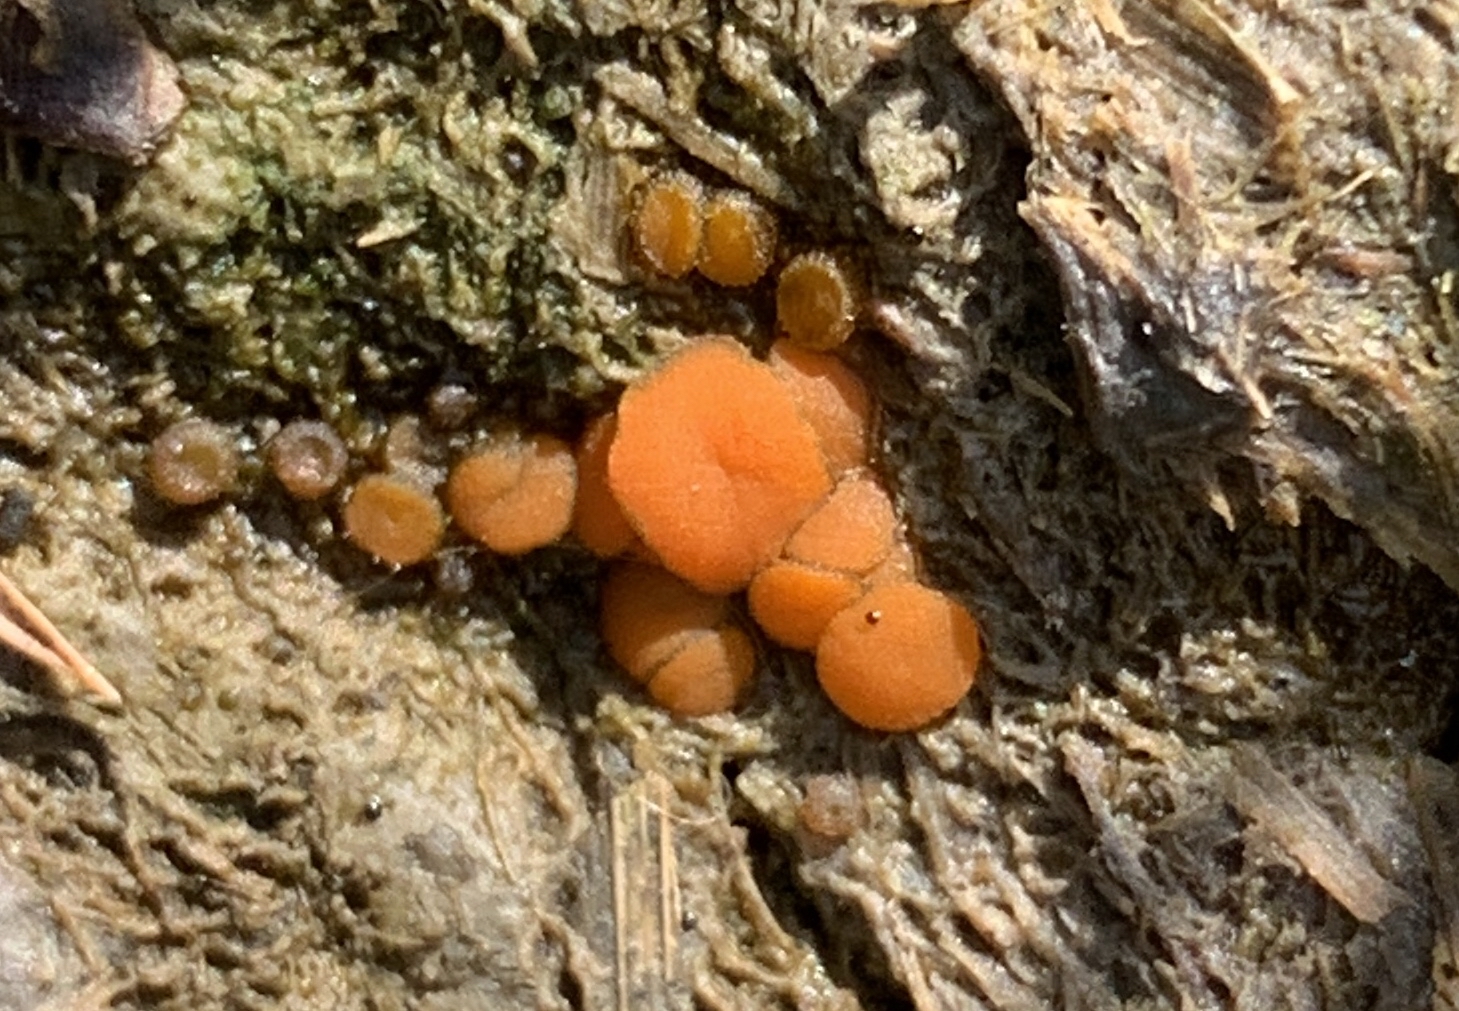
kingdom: Fungi
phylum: Ascomycota
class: Pezizomycetes
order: Pezizales
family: Pyronemataceae
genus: Cheilymenia
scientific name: Cheilymenia granulata
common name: møgbæger
